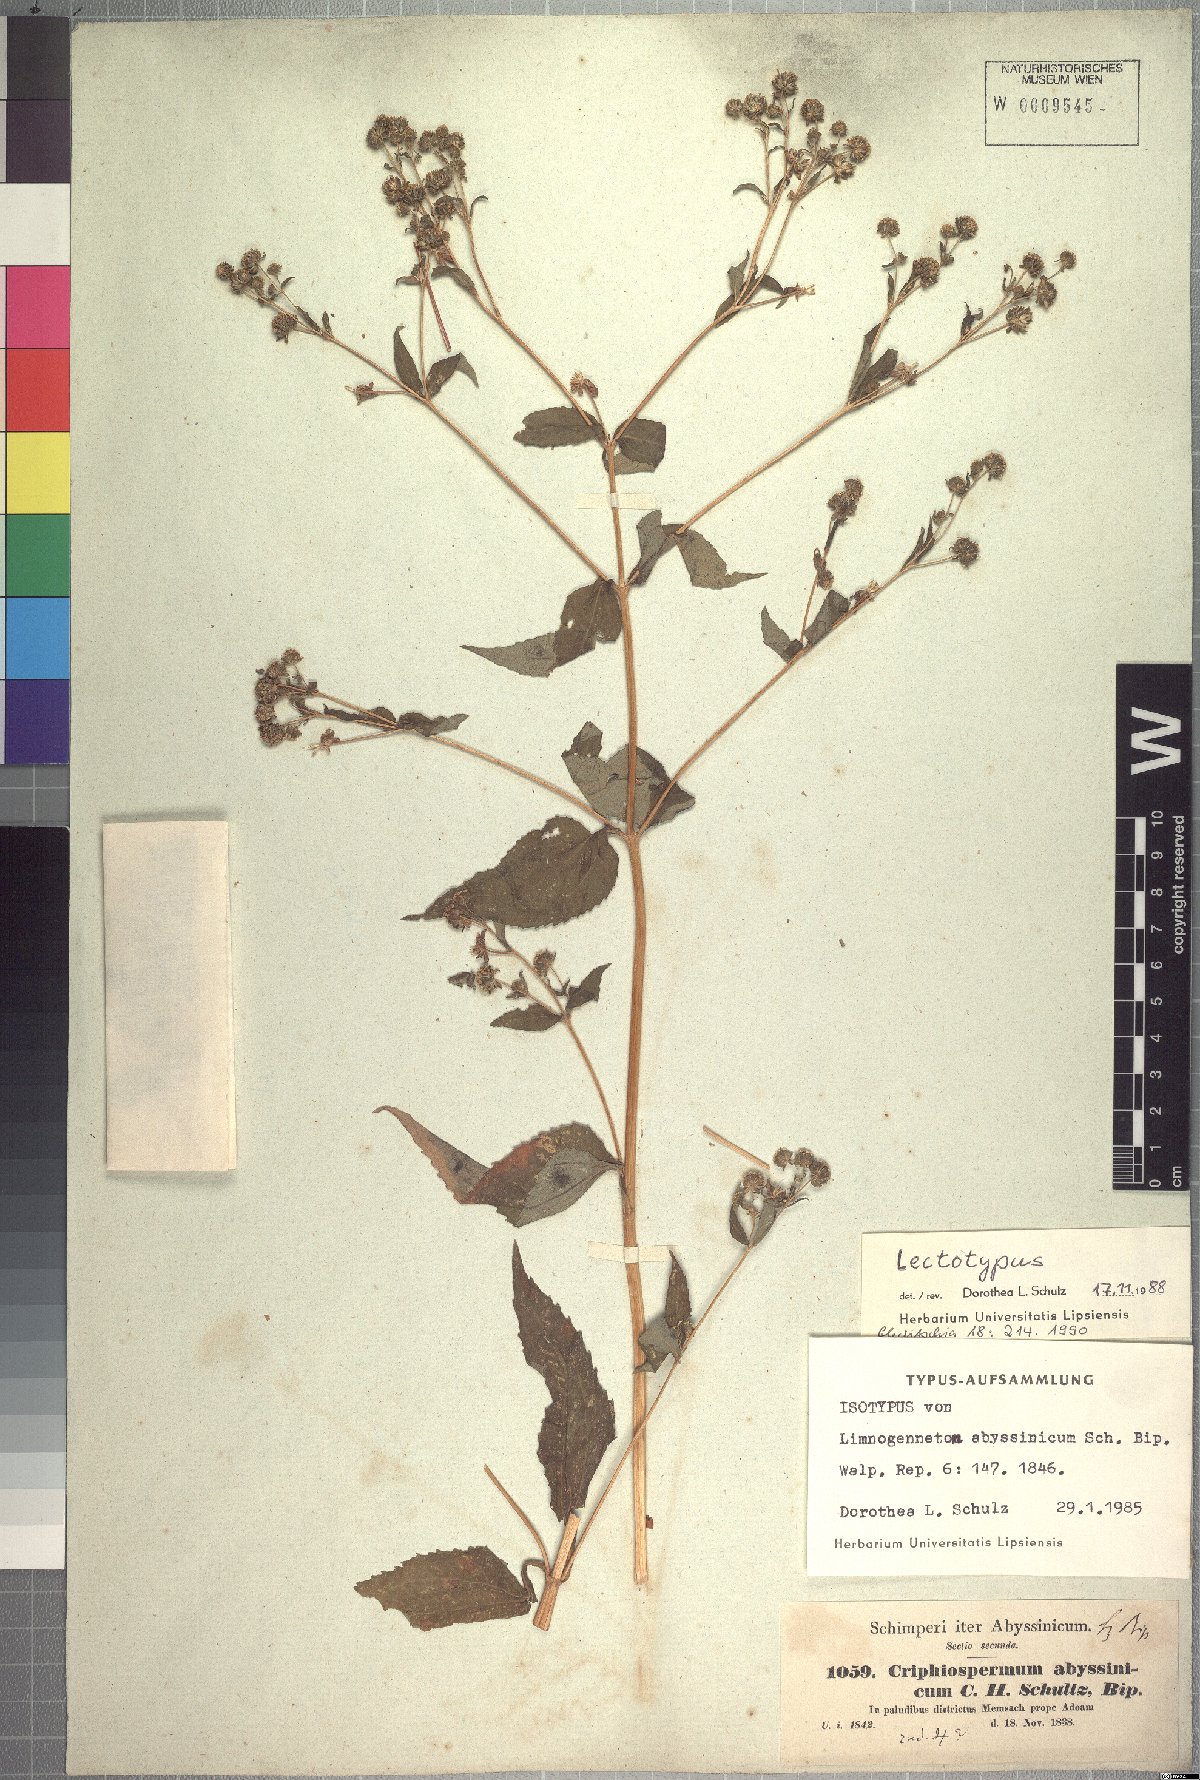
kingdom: Plantae
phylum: Tracheophyta
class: Magnoliopsida
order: Asterales
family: Asteraceae
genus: Micractis
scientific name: Micractis bojeri
